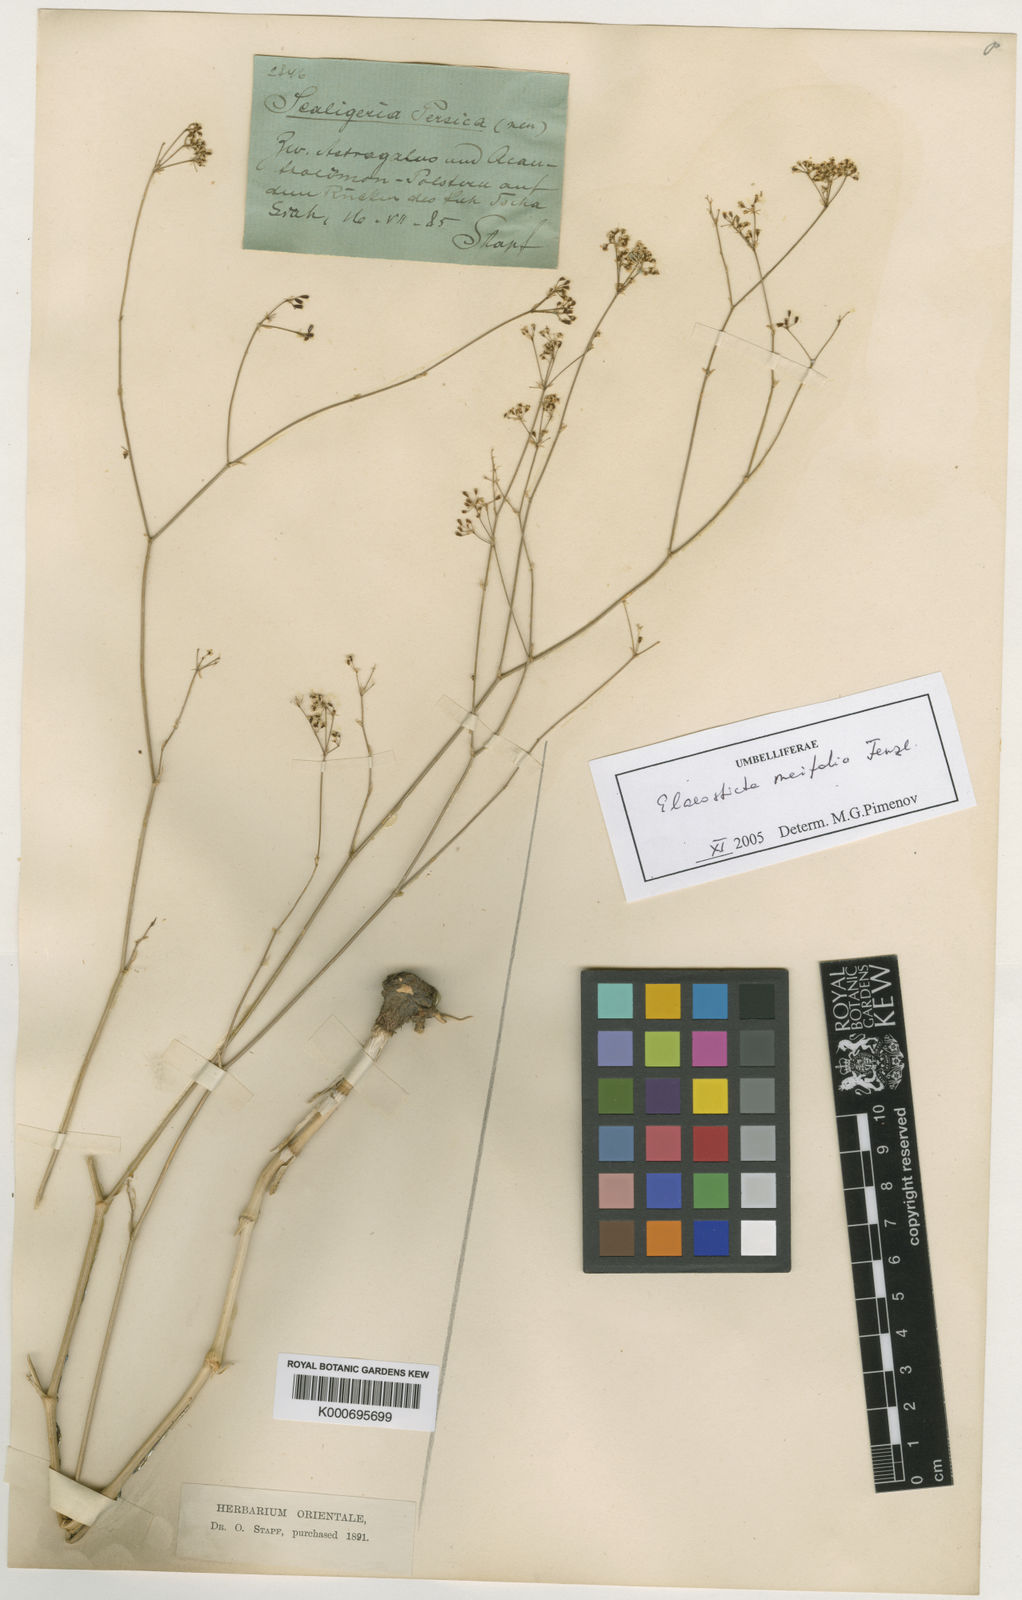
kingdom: Plantae
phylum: Tracheophyta
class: Magnoliopsida
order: Apiales
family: Apiaceae
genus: Scaligeria
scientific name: Scaligeria
